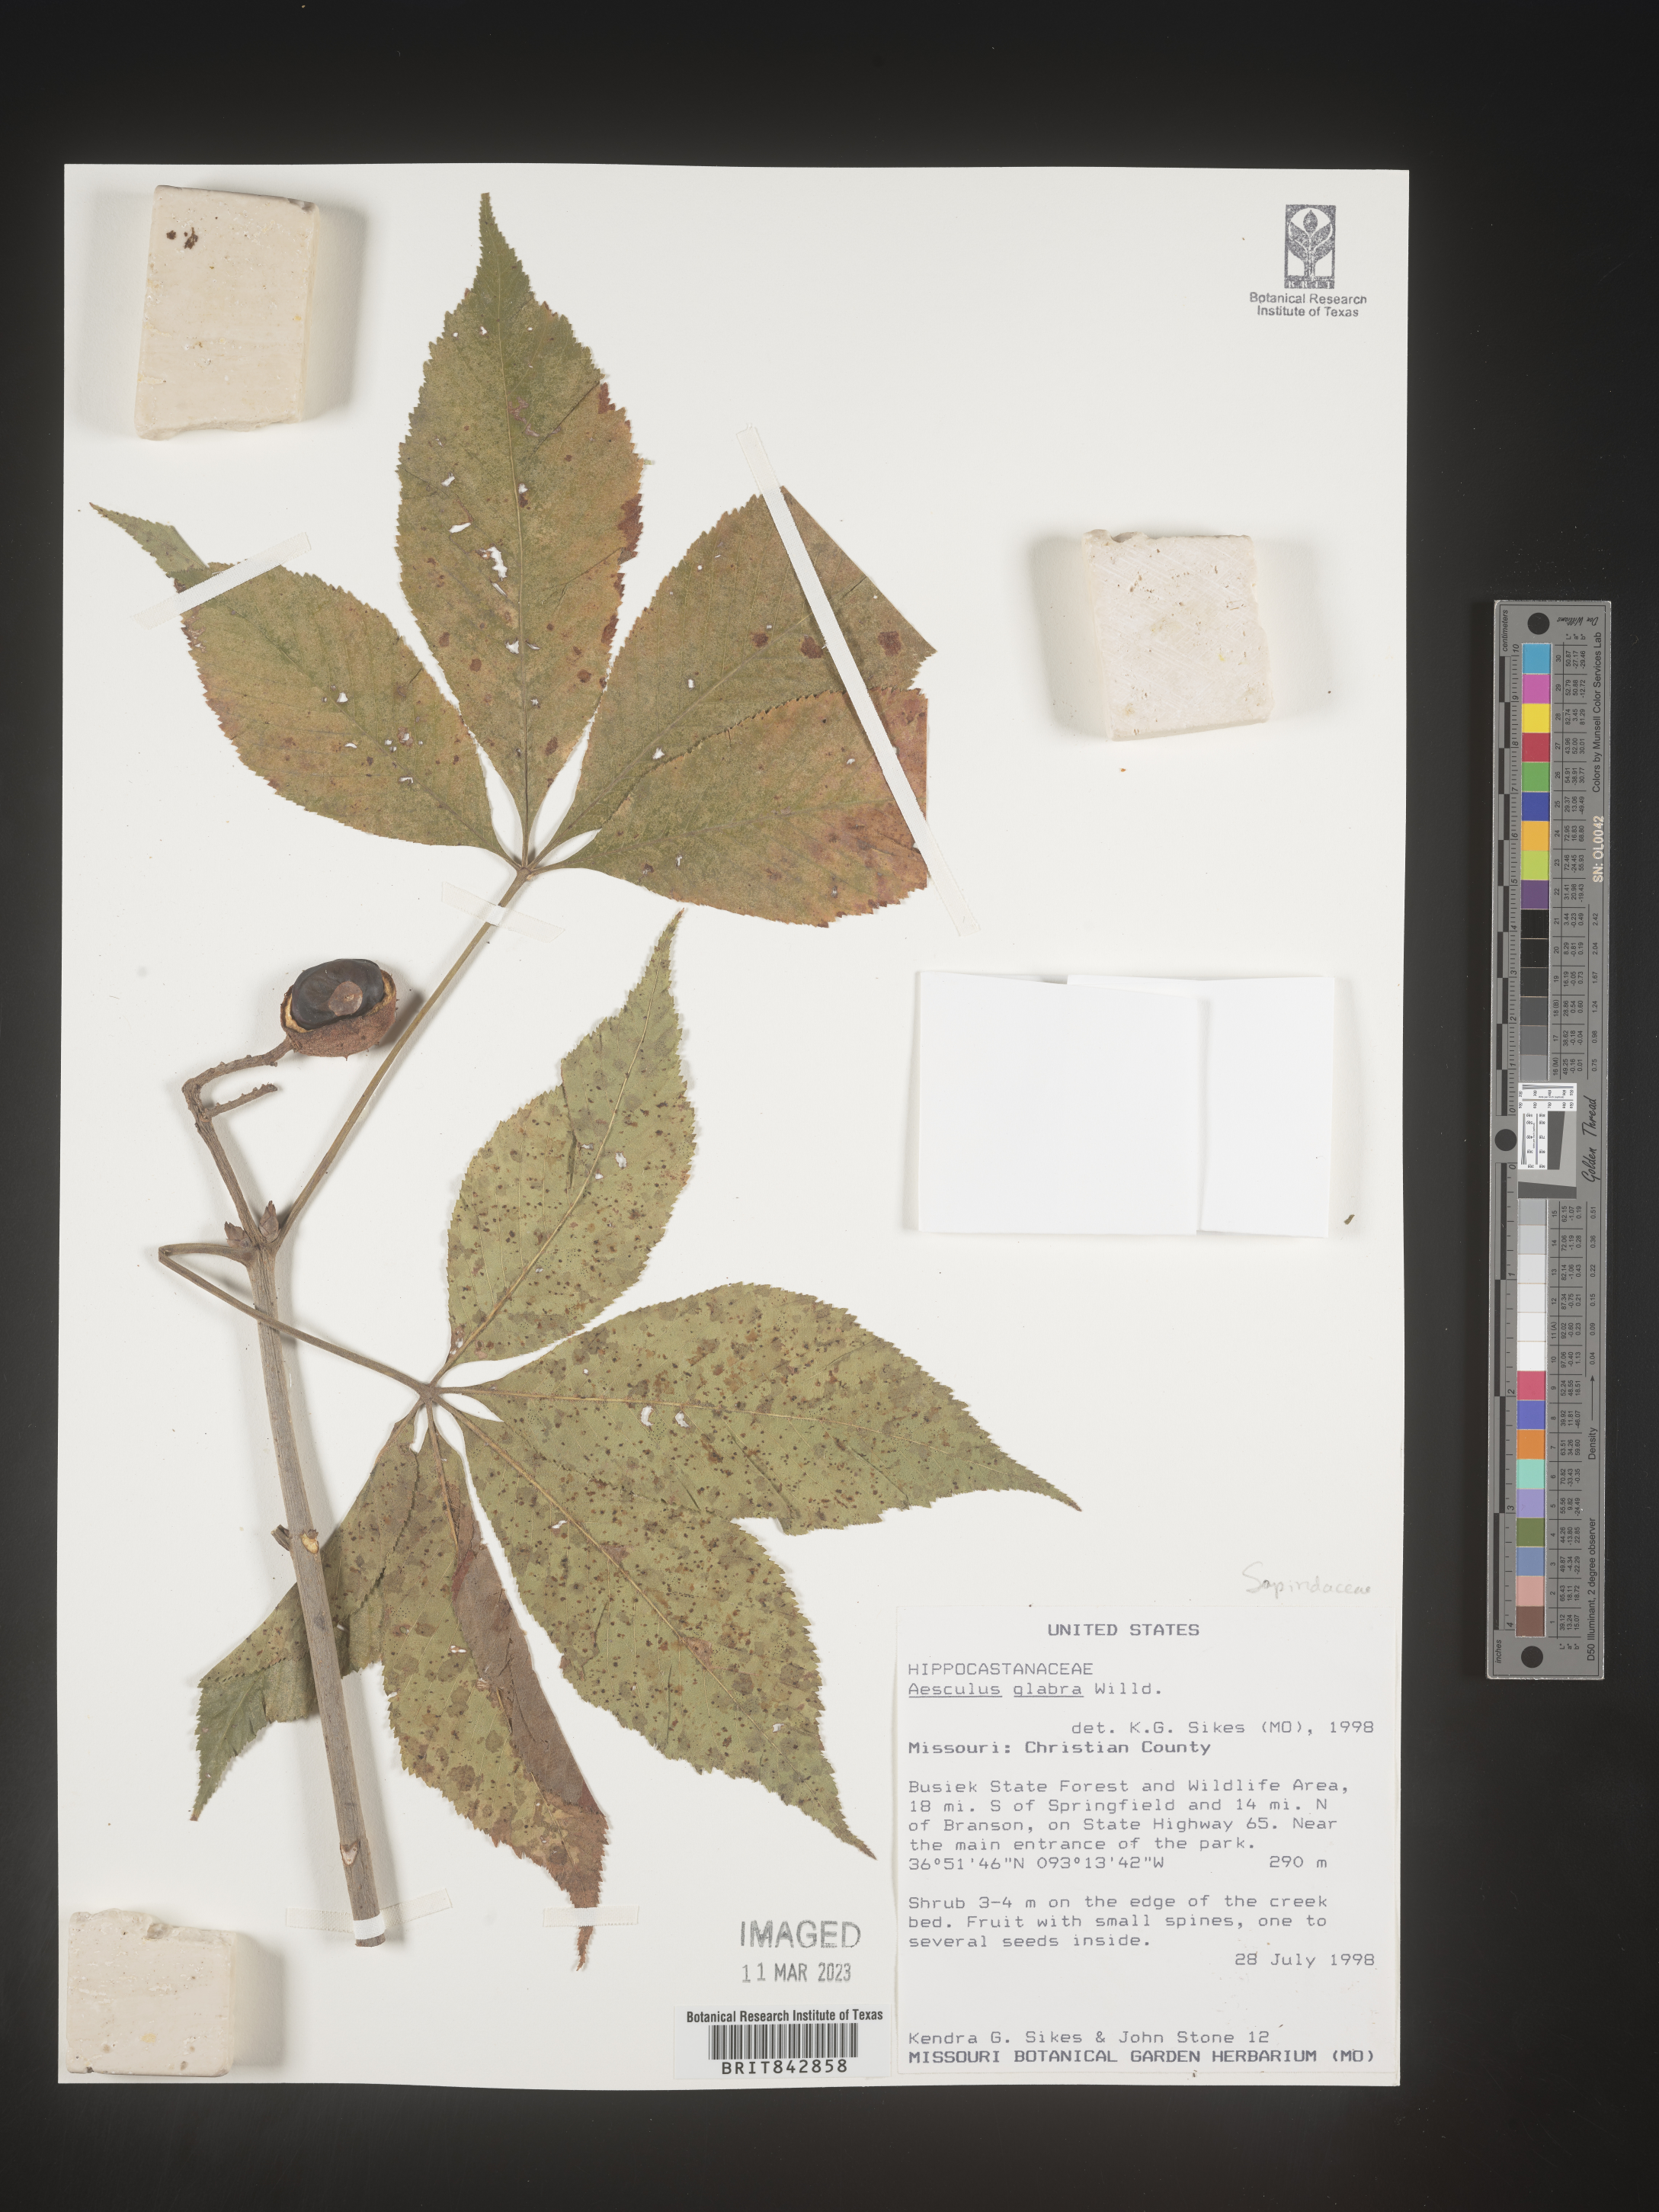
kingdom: Plantae
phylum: Tracheophyta
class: Magnoliopsida
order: Sapindales
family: Sapindaceae
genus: Aesculus
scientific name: Aesculus glabra
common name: Ohio buckeye
